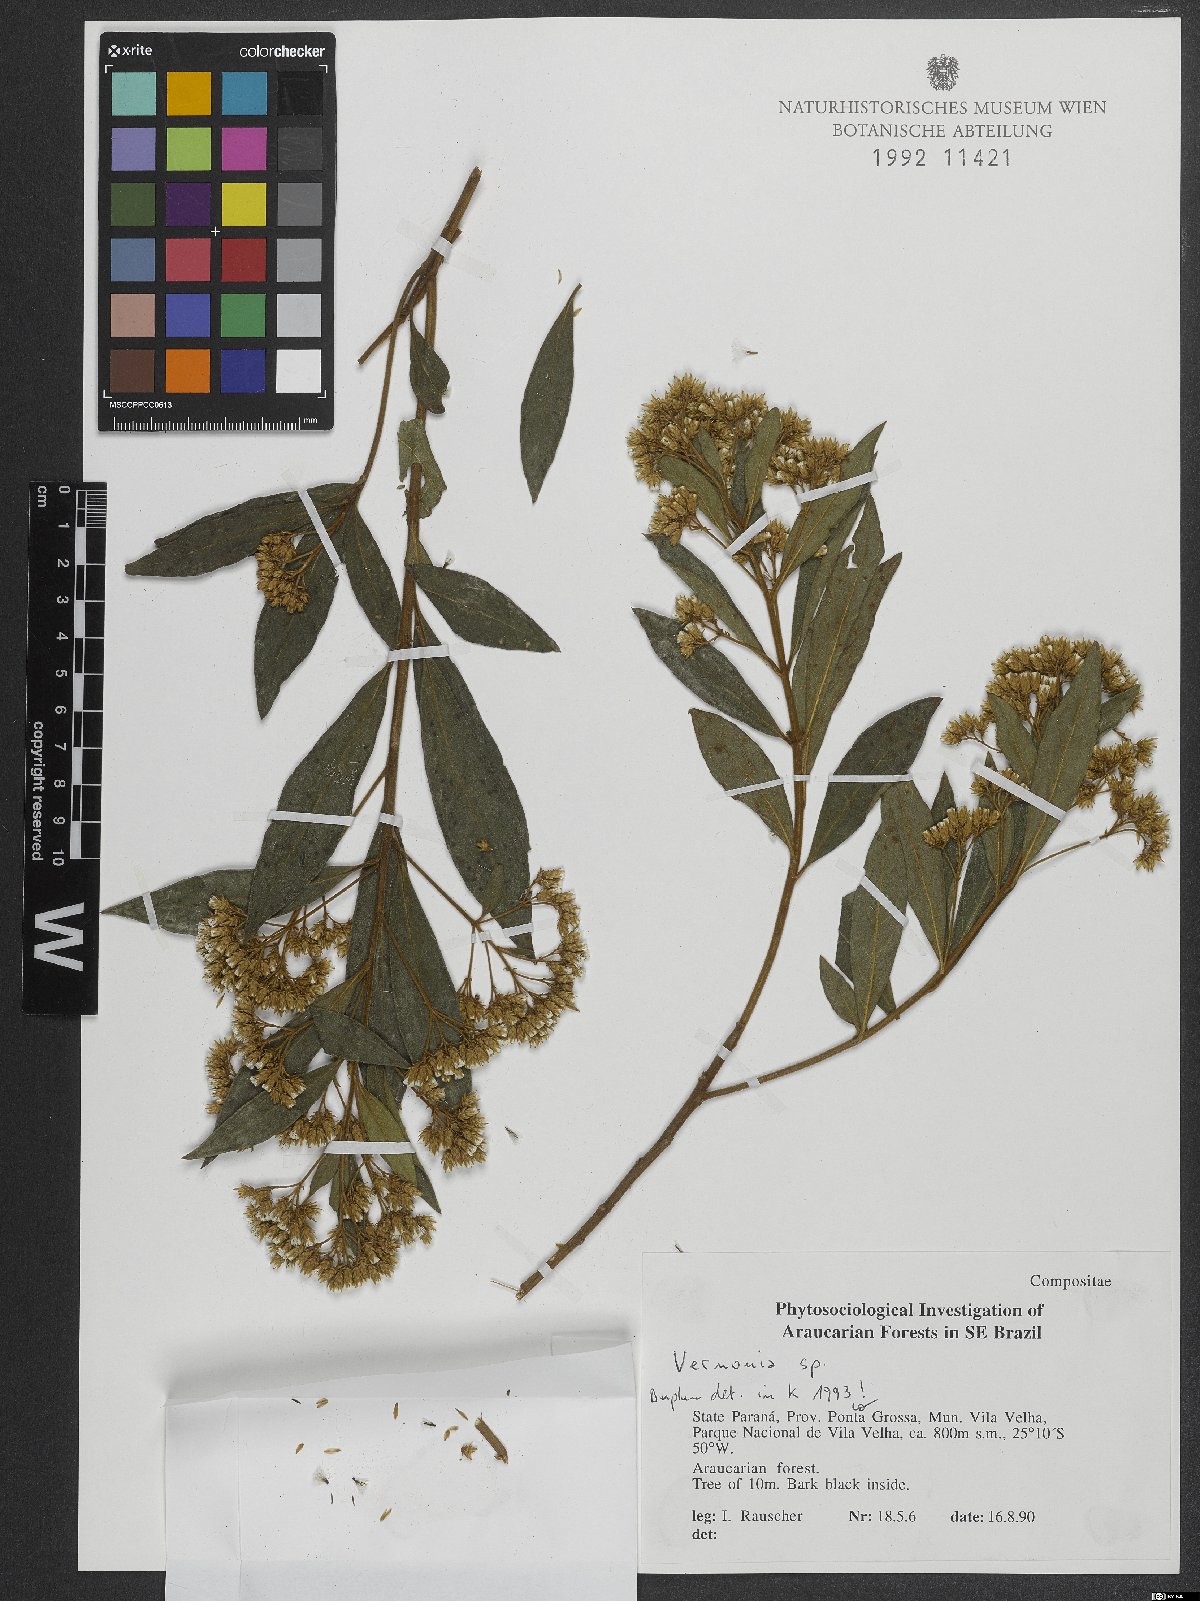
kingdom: Plantae
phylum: Tracheophyta
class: Magnoliopsida
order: Asterales
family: Asteraceae
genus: Vernonia
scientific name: Vernonia
